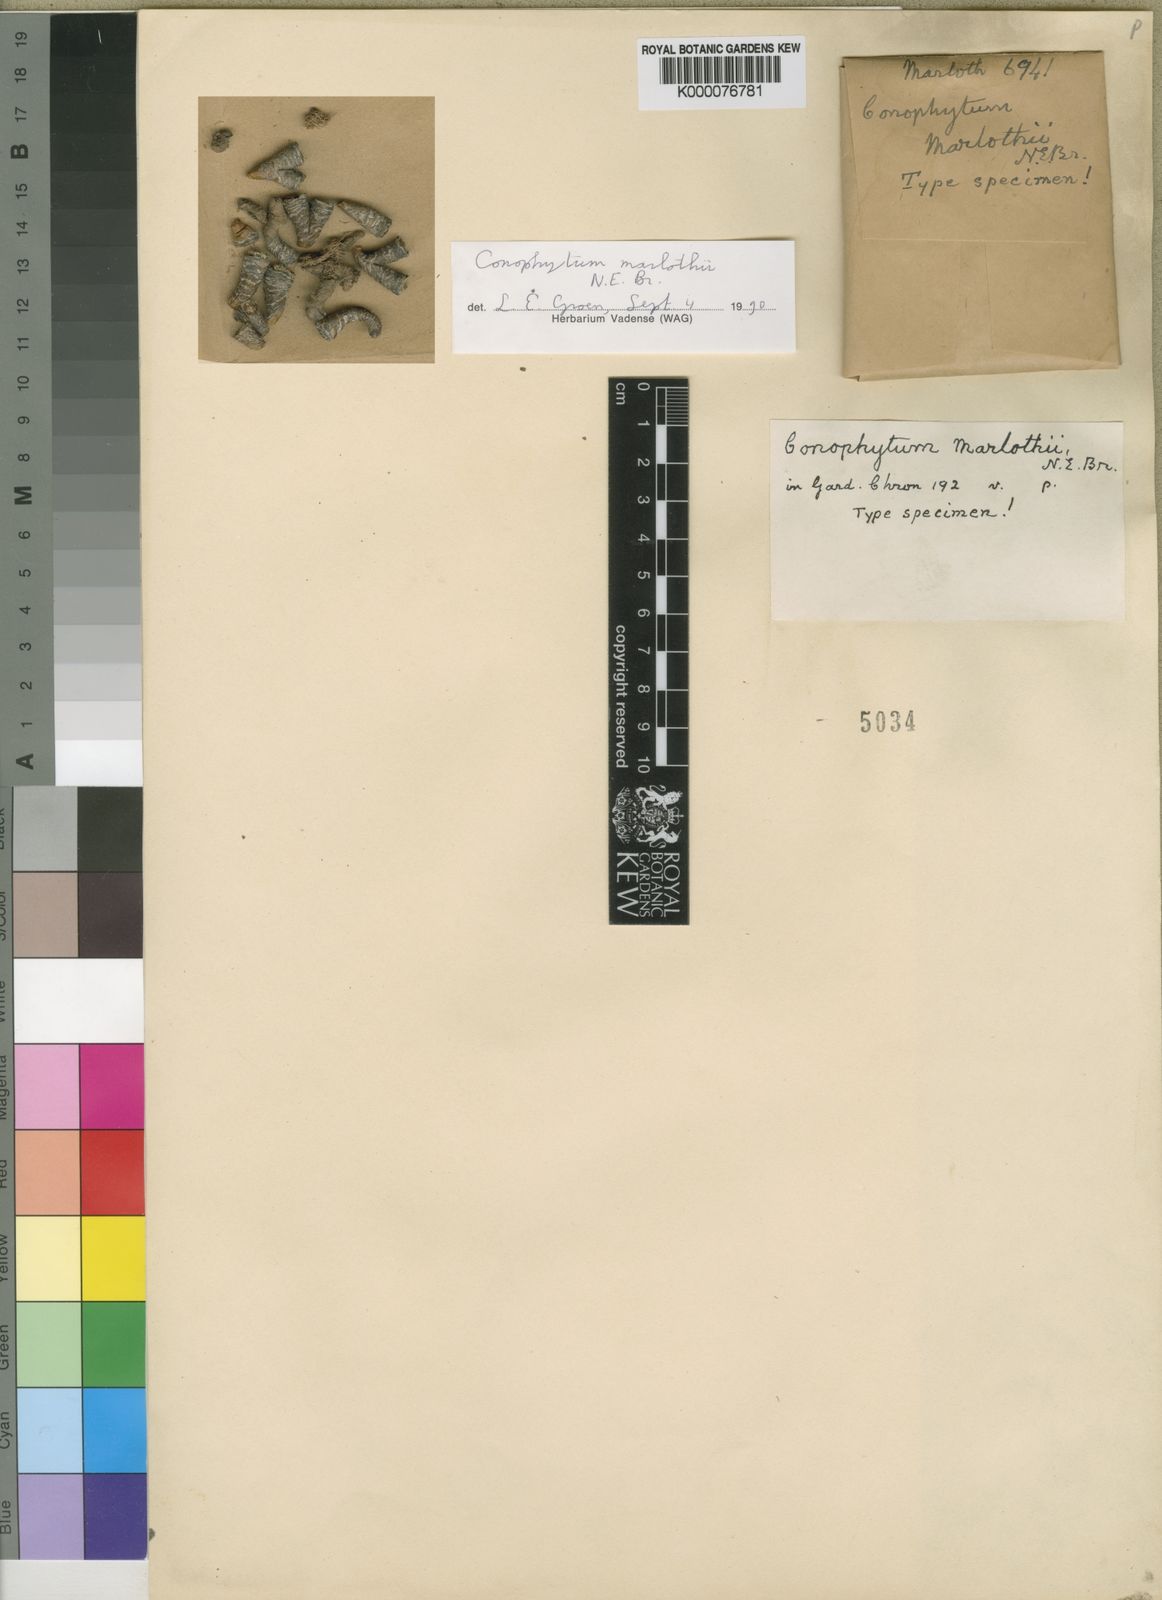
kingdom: Plantae
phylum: Tracheophyta
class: Magnoliopsida
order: Caryophyllales
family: Aizoaceae
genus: Conophytum
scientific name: Conophytum jucundum
